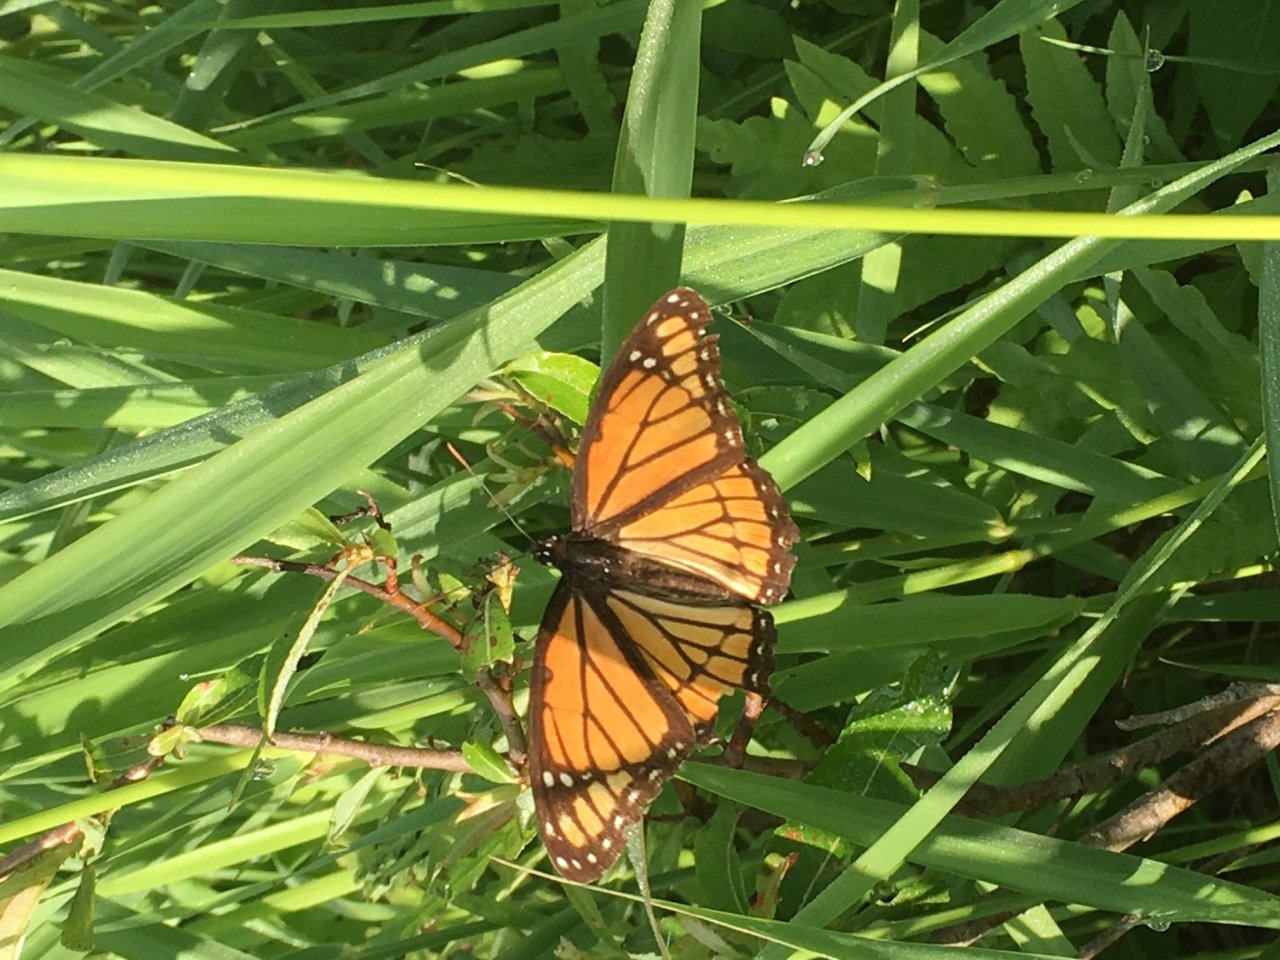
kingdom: Animalia
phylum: Arthropoda
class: Insecta
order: Lepidoptera
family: Nymphalidae
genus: Limenitis
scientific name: Limenitis archippus
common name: Viceroy
